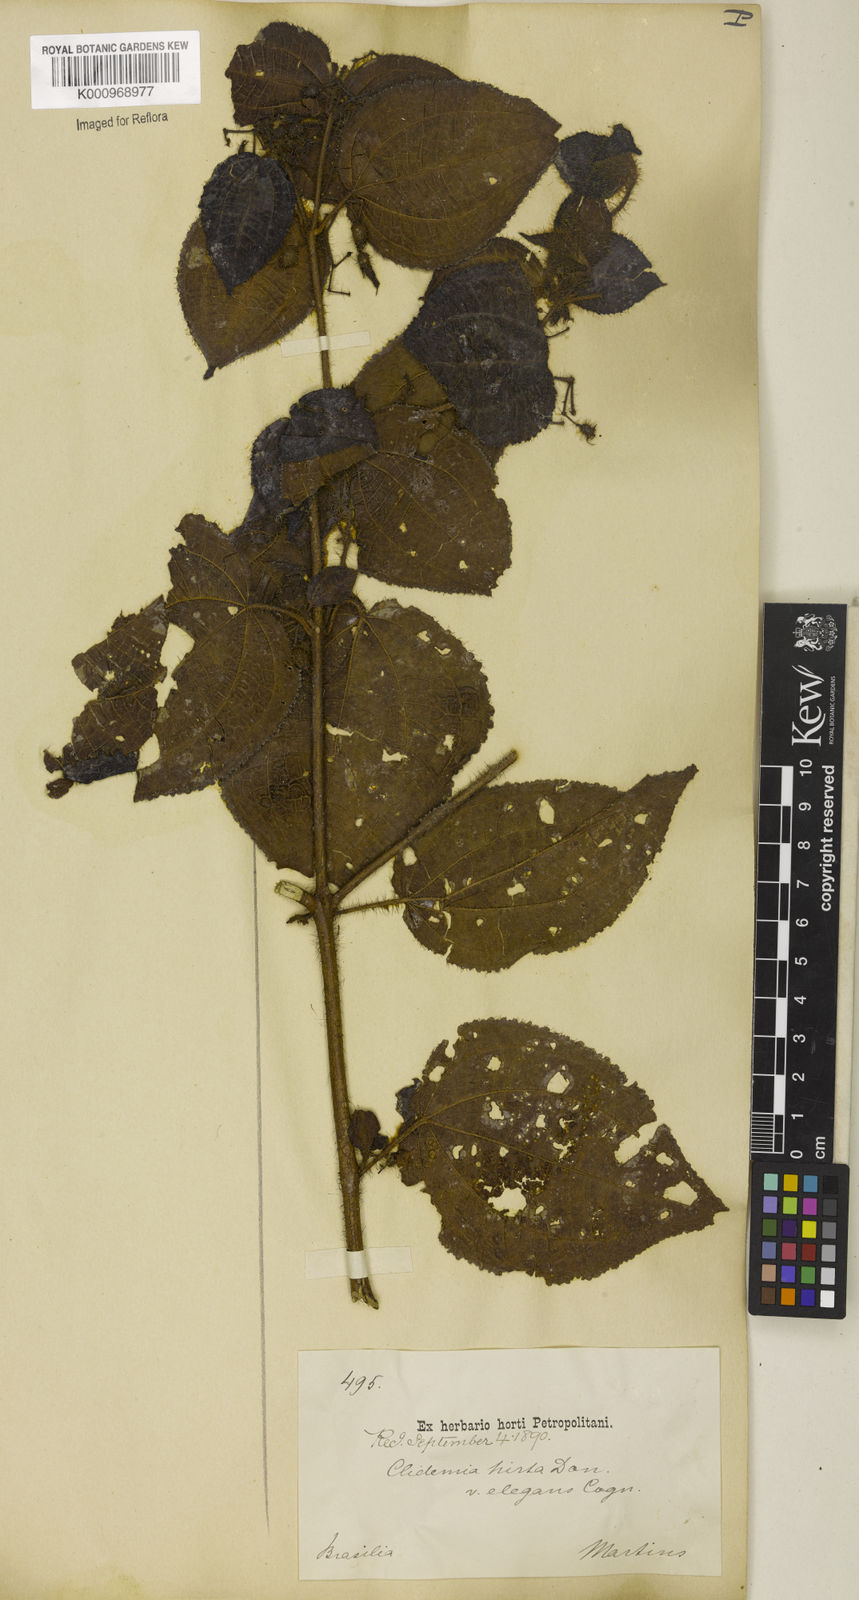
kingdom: Plantae
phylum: Tracheophyta
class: Magnoliopsida
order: Myrtales
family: Melastomataceae
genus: Miconia
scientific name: Miconia crenata
